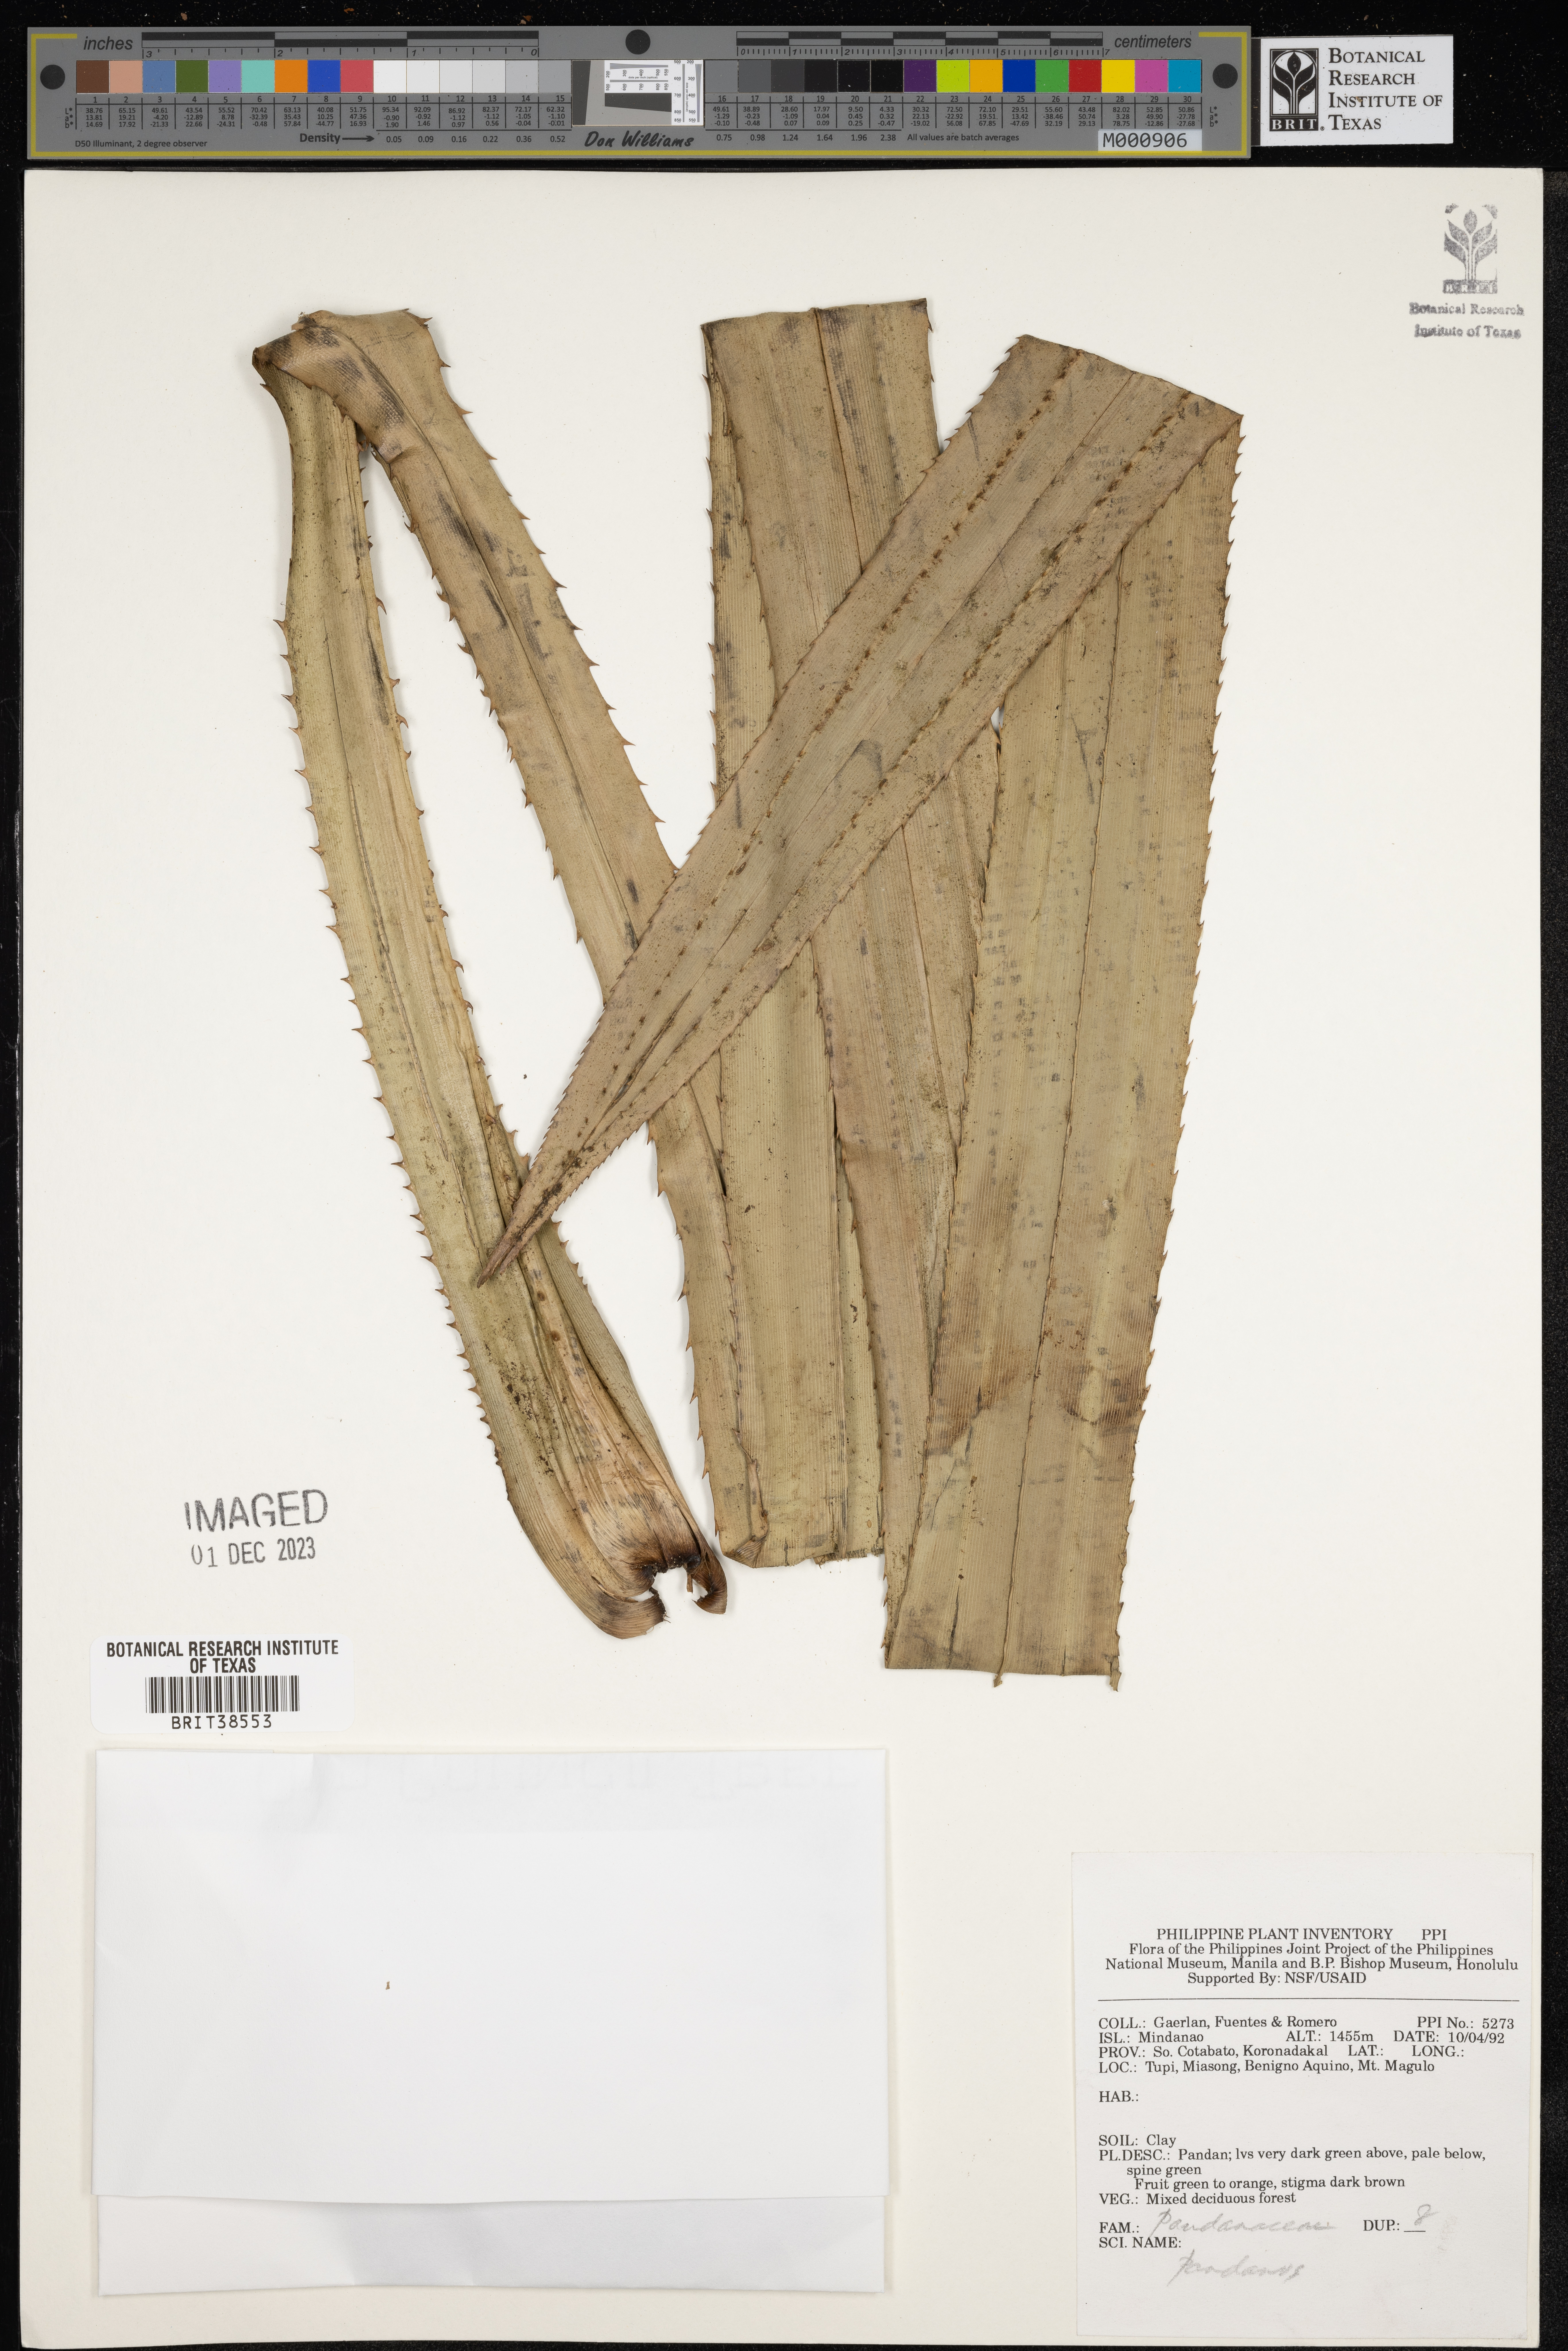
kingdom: Plantae
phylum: Tracheophyta
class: Liliopsida
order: Pandanales
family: Pandanaceae
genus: Pandanus
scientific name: Pandanus
